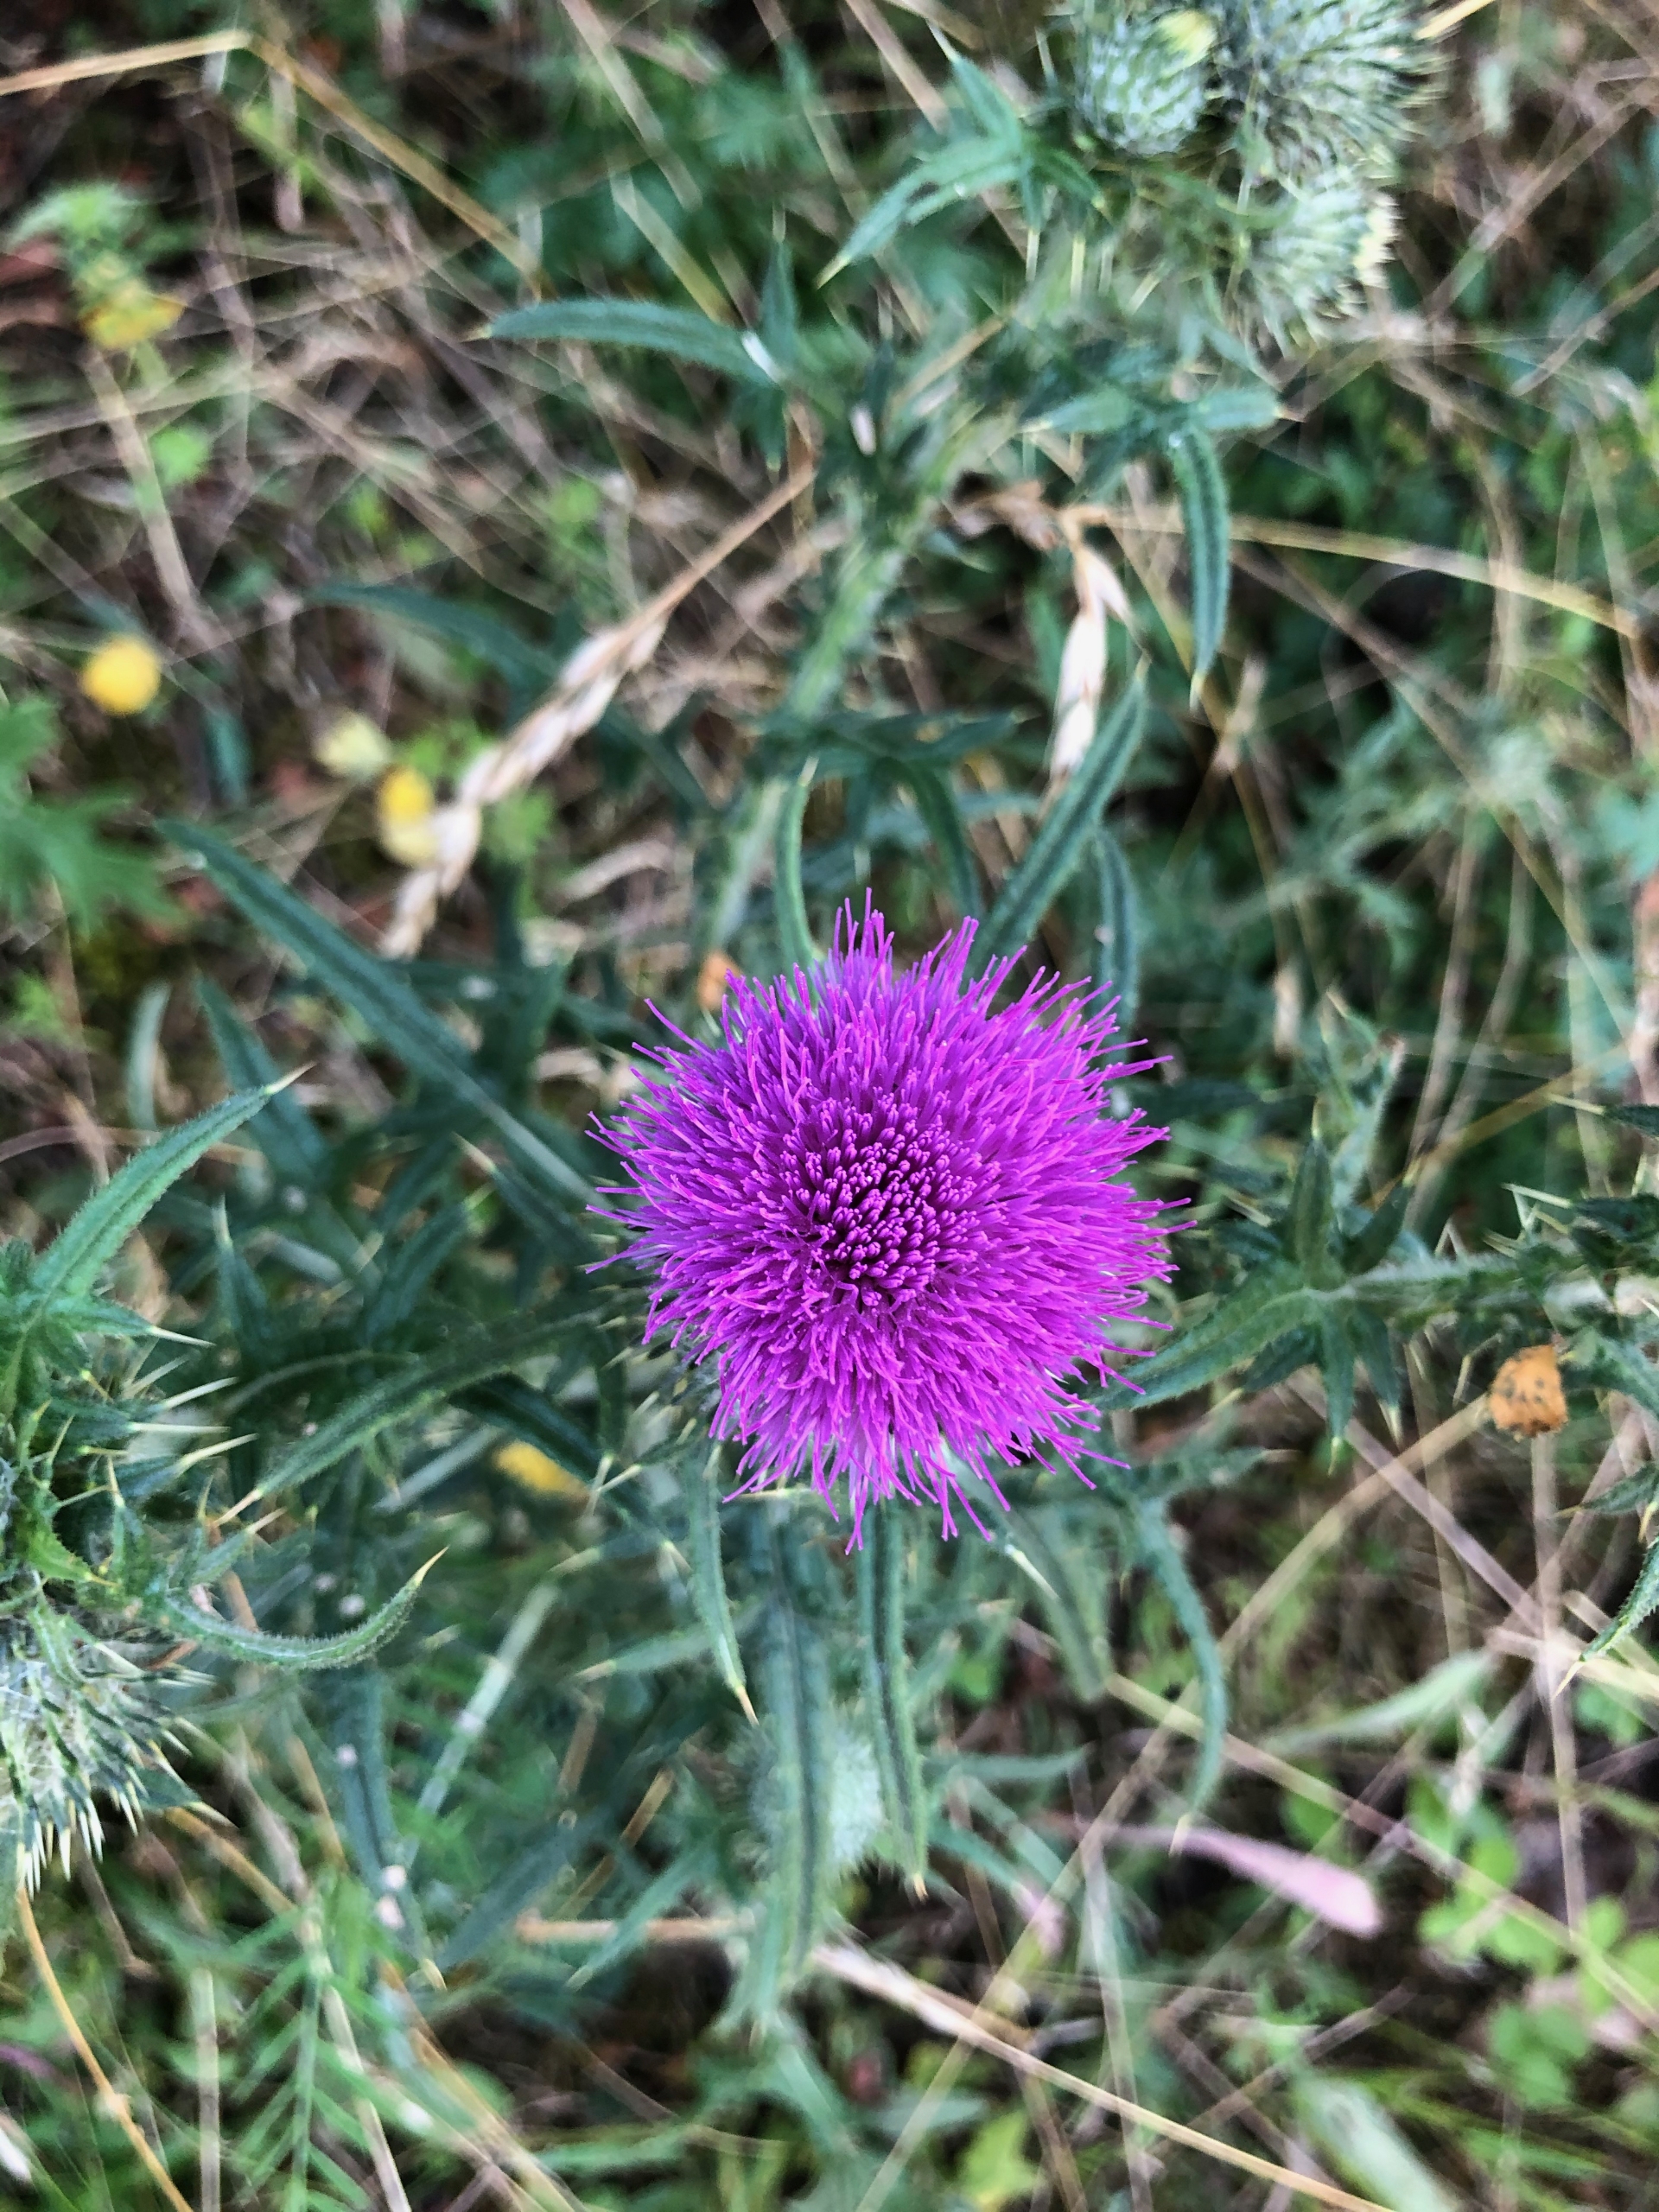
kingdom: Plantae
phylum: Tracheophyta
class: Magnoliopsida
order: Asterales
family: Asteraceae
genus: Cirsium
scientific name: Cirsium vulgare
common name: Horse-tidsel
